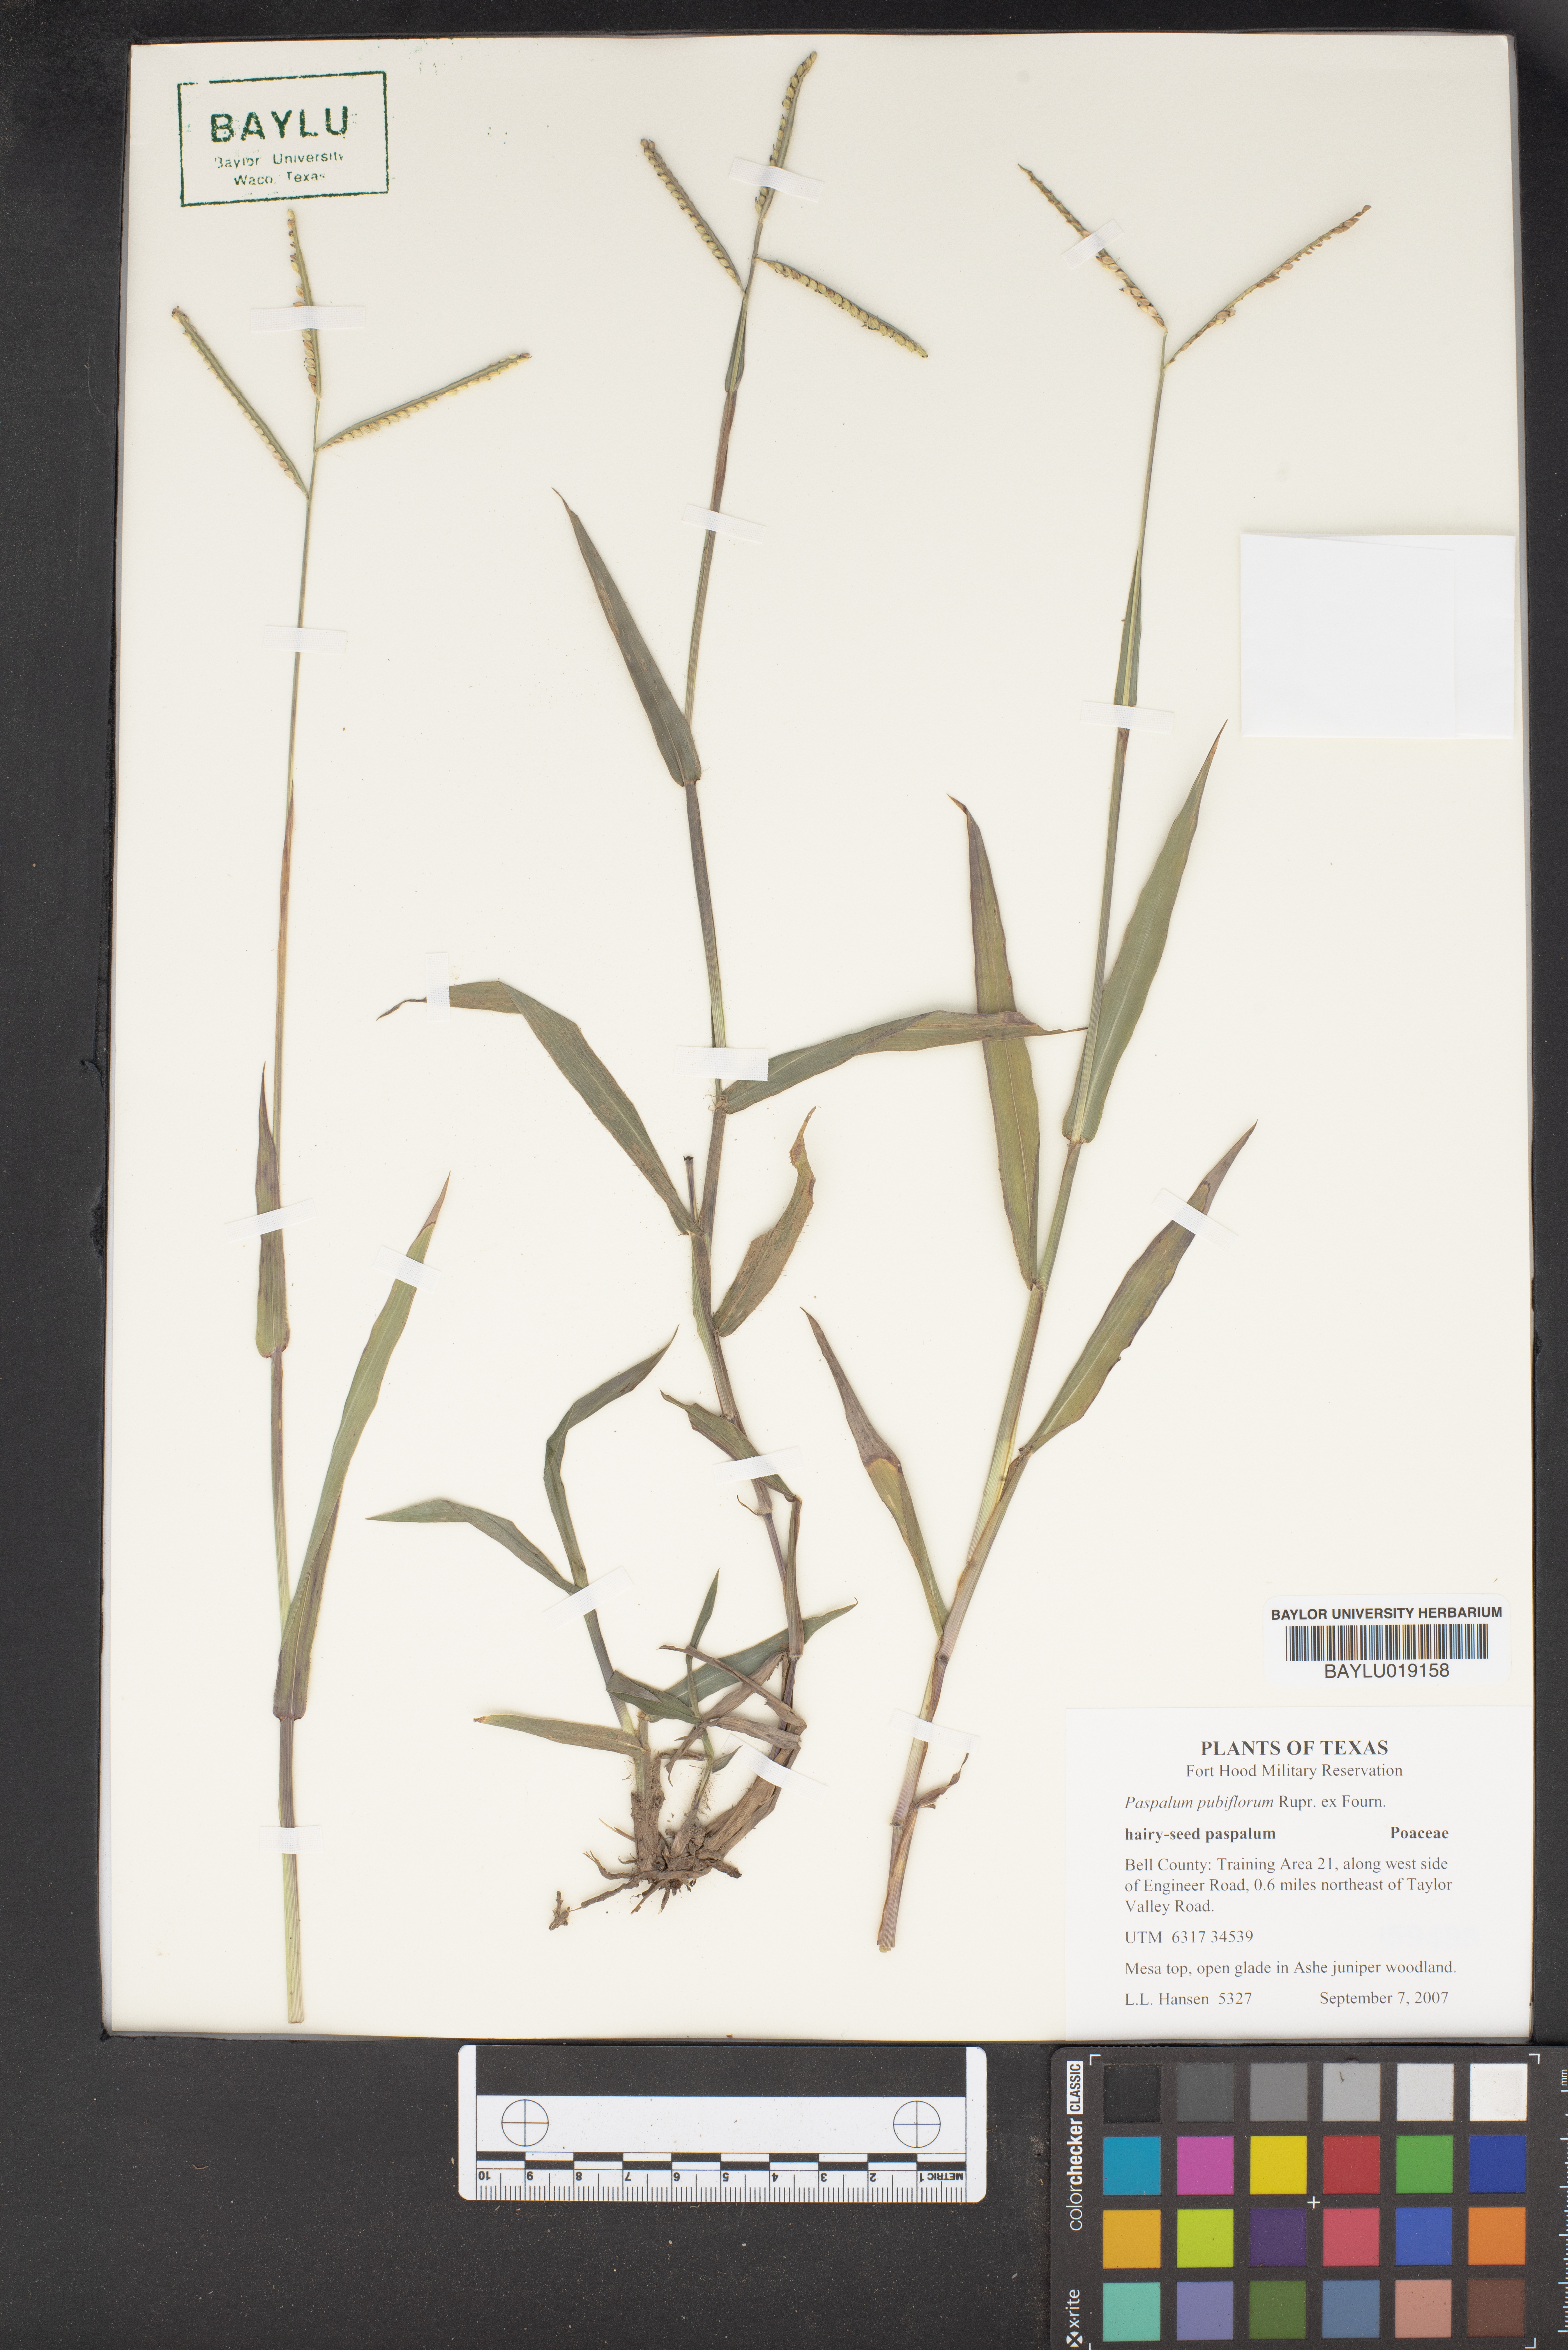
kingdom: Plantae
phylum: Tracheophyta
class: Liliopsida
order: Poales
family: Poaceae
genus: Paspalum
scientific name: Paspalum pubiflorum
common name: Hairy-seed paspalum
